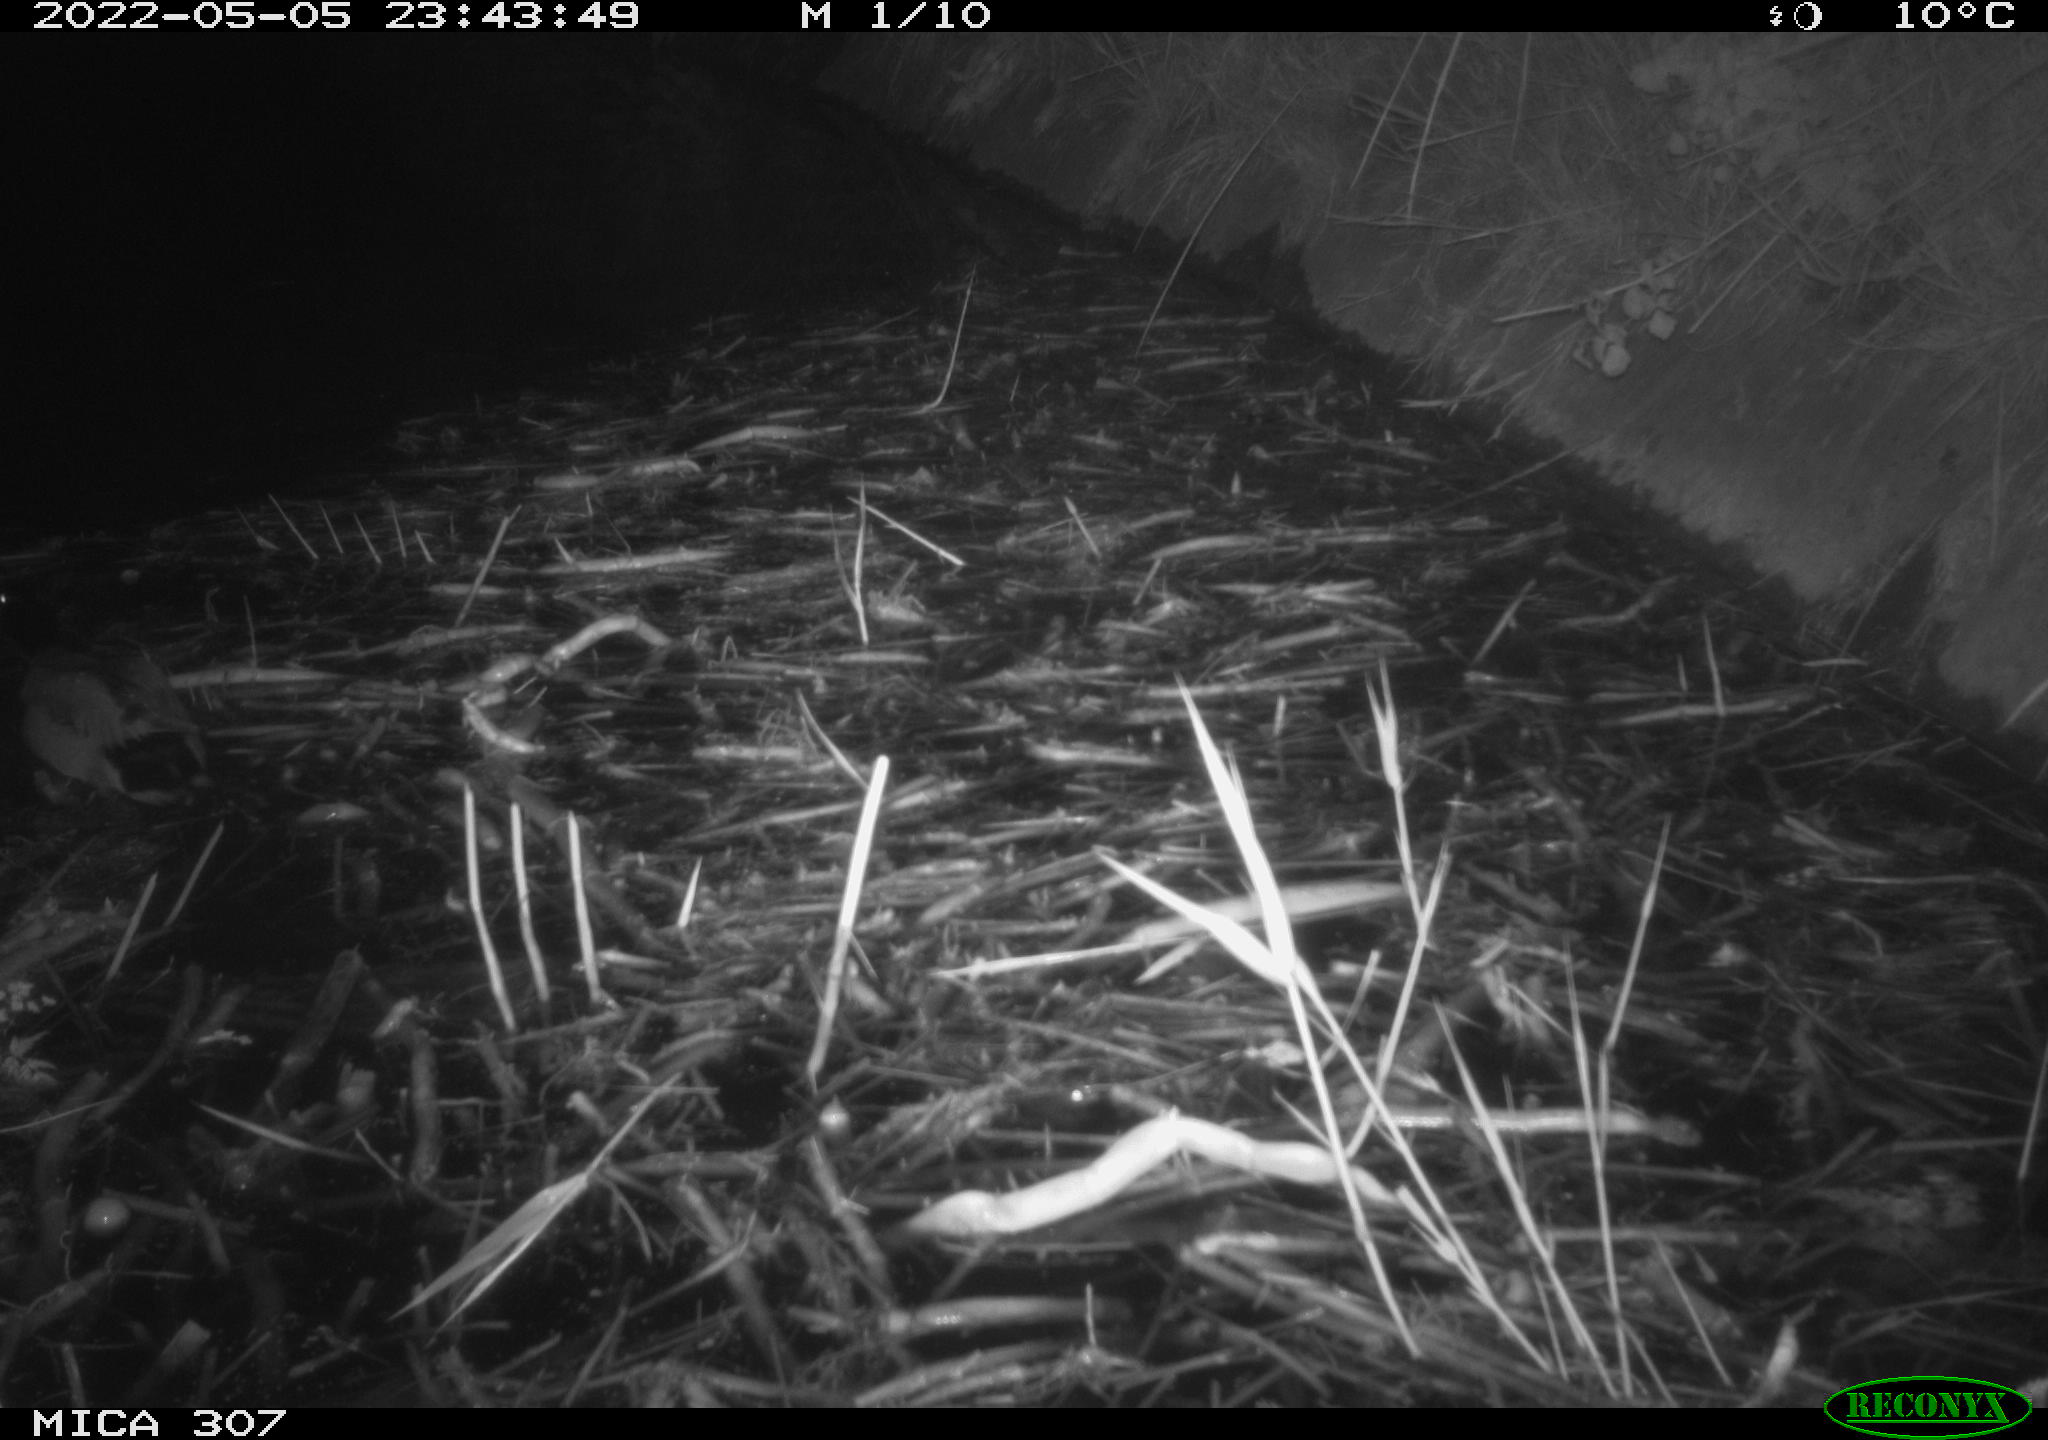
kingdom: Animalia
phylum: Chordata
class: Aves
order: Anseriformes
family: Anatidae
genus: Anas
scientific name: Anas platyrhynchos
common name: Mallard
